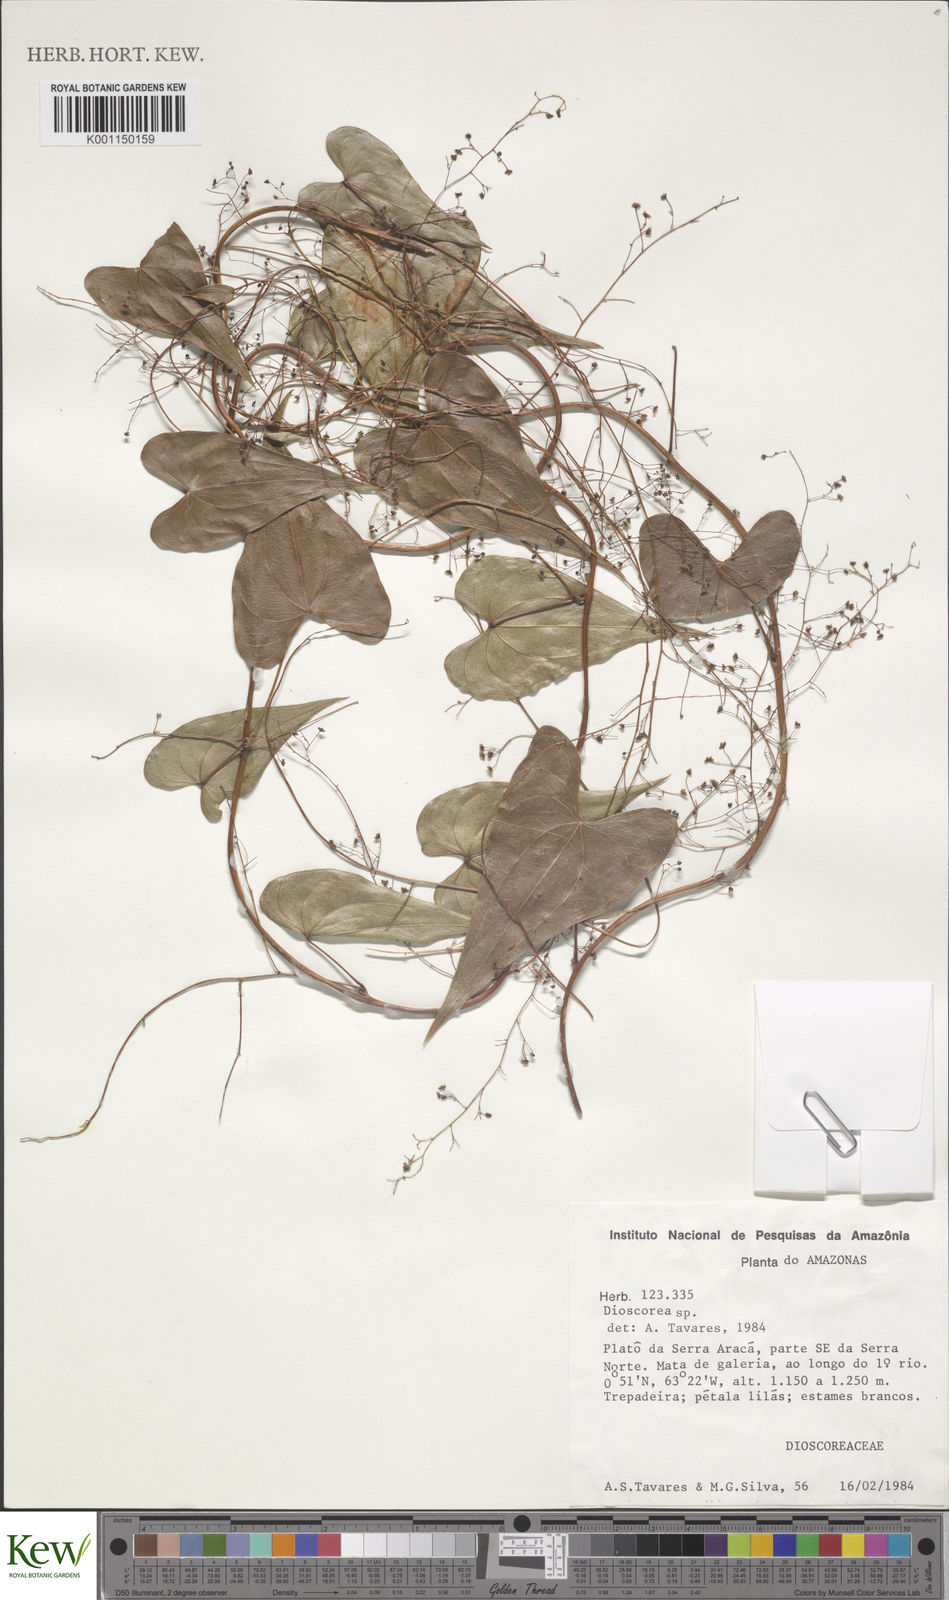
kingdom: Plantae
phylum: Tracheophyta
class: Liliopsida
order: Dioscoreales
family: Dioscoreaceae
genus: Dioscorea
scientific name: Dioscorea
